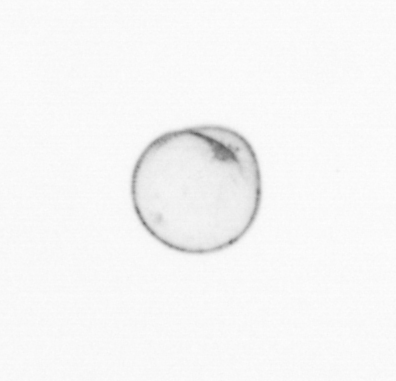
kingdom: Chromista
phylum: Myzozoa
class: Dinophyceae
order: Noctilucales
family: Noctilucaceae
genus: Noctiluca
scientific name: Noctiluca scintillans
